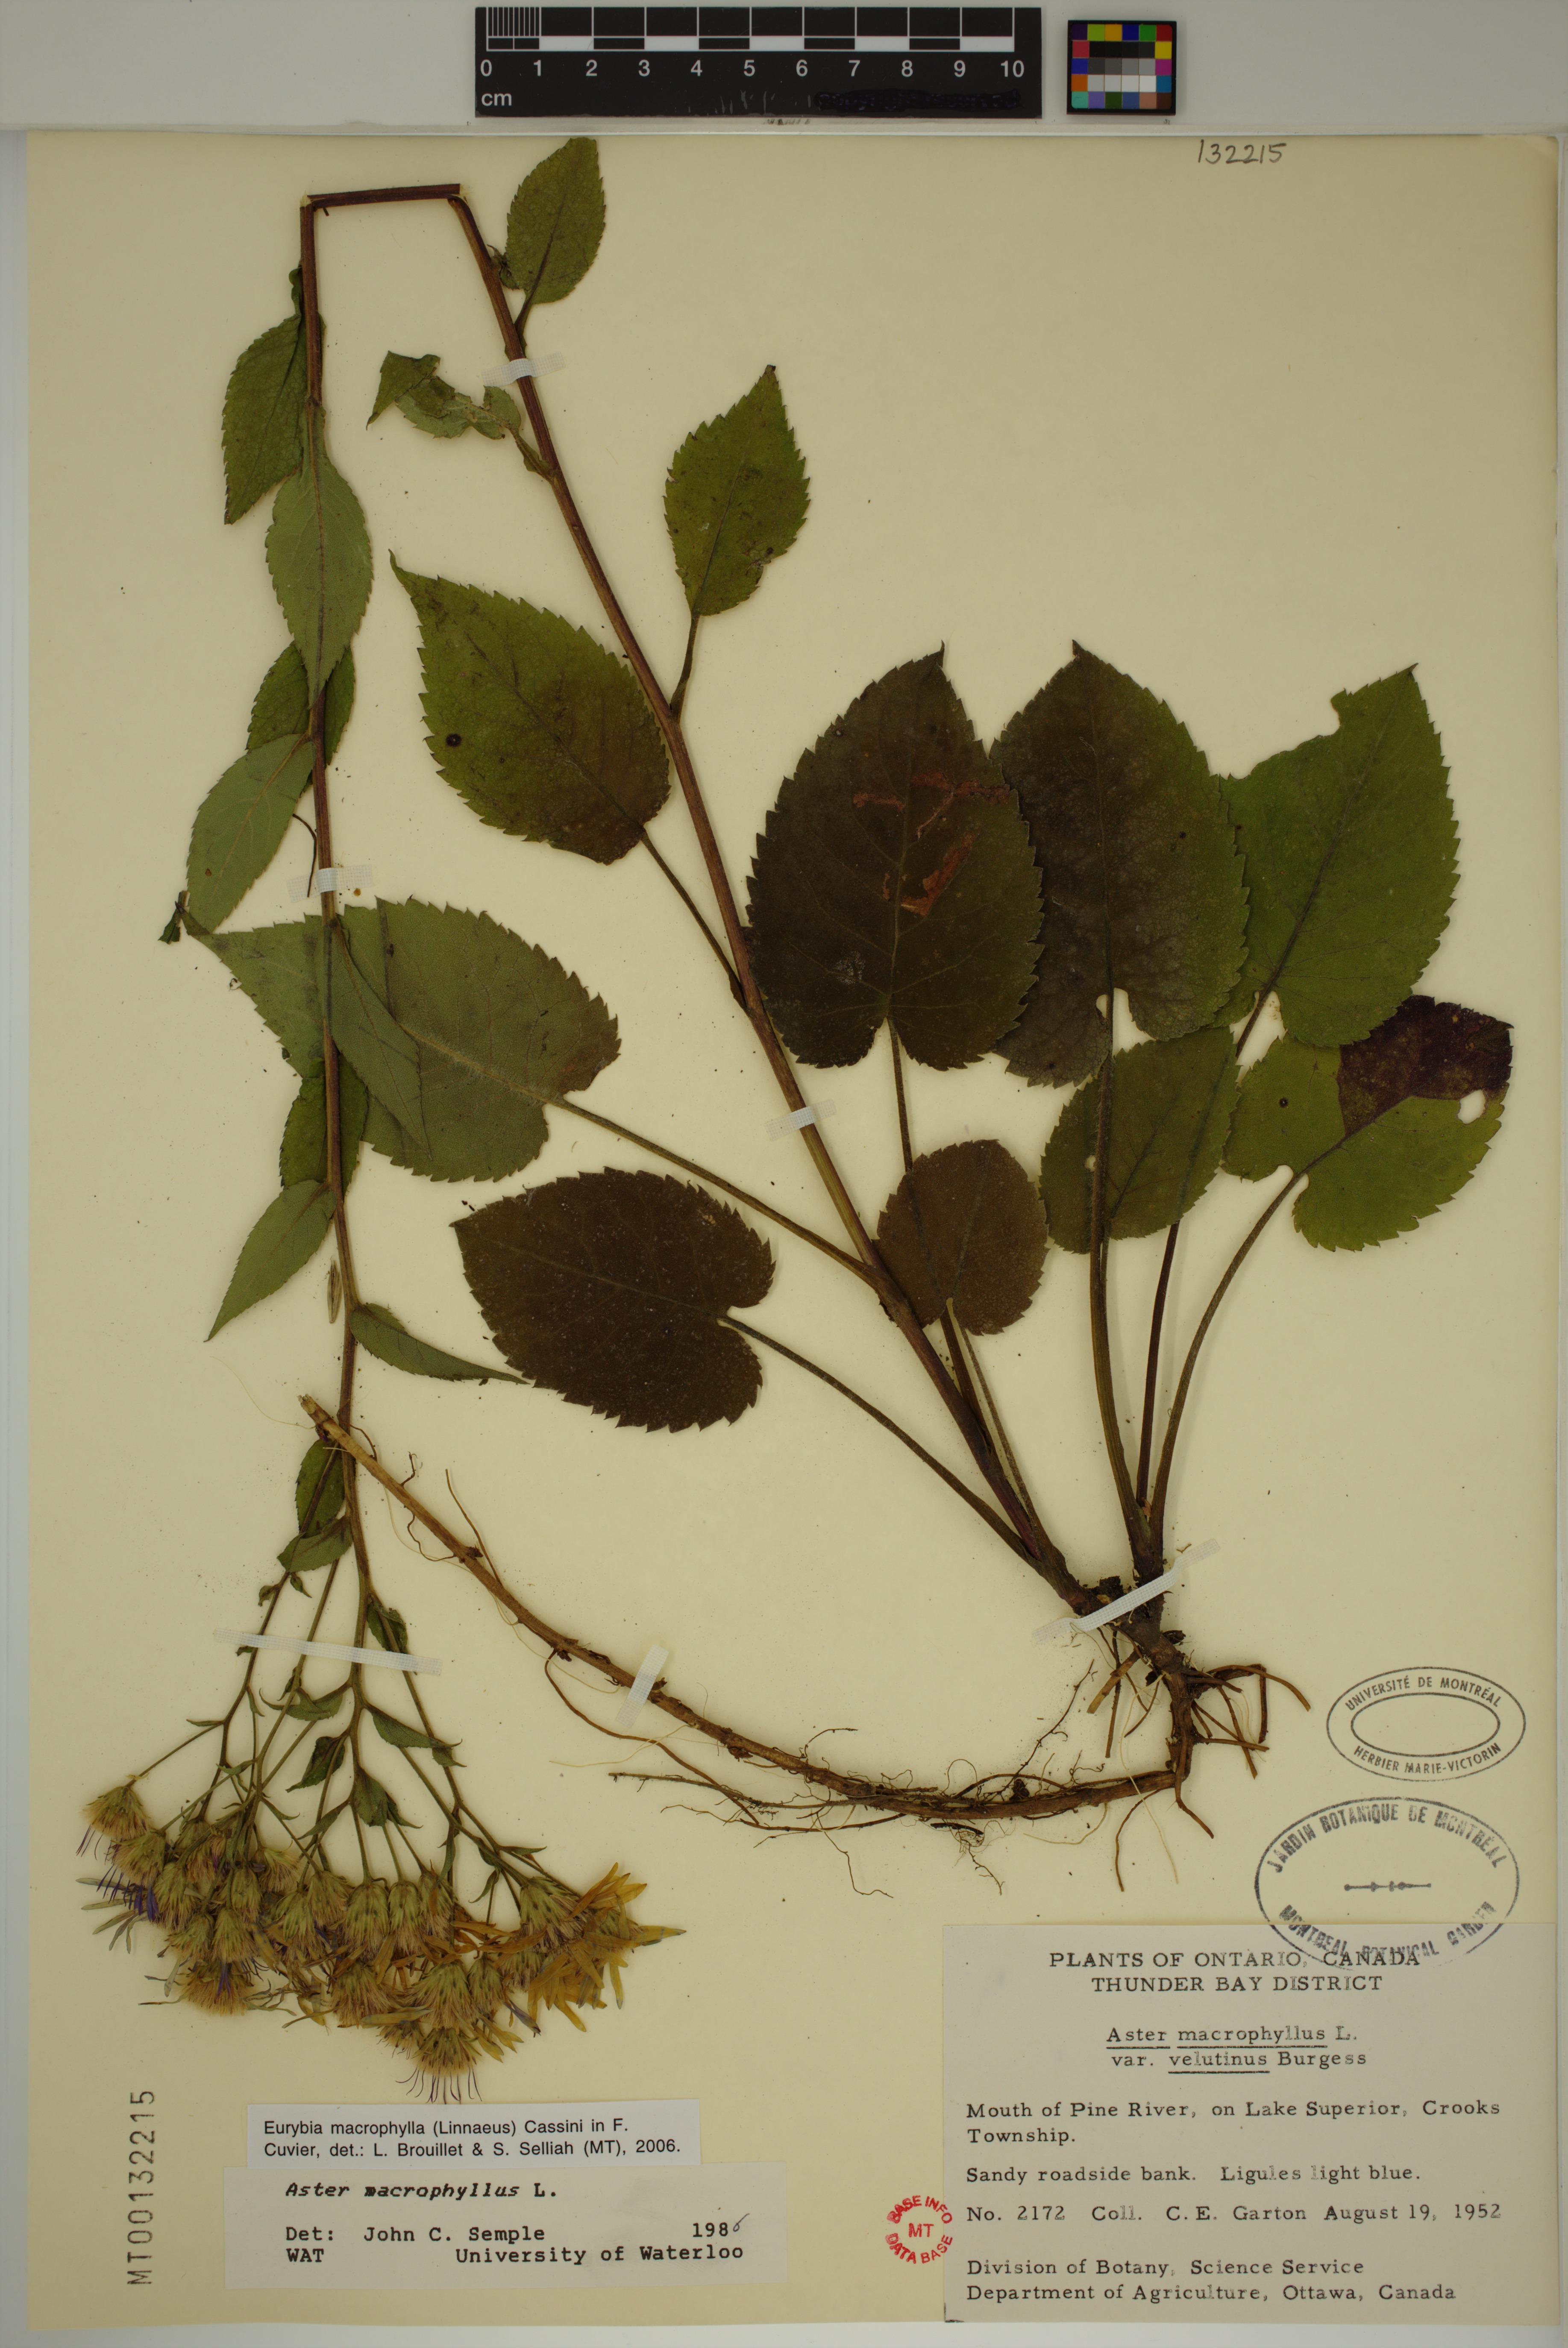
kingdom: Plantae
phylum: Tracheophyta
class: Magnoliopsida
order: Asterales
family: Asteraceae
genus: Eurybia
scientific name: Eurybia macrophylla
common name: Big-leaved aster
